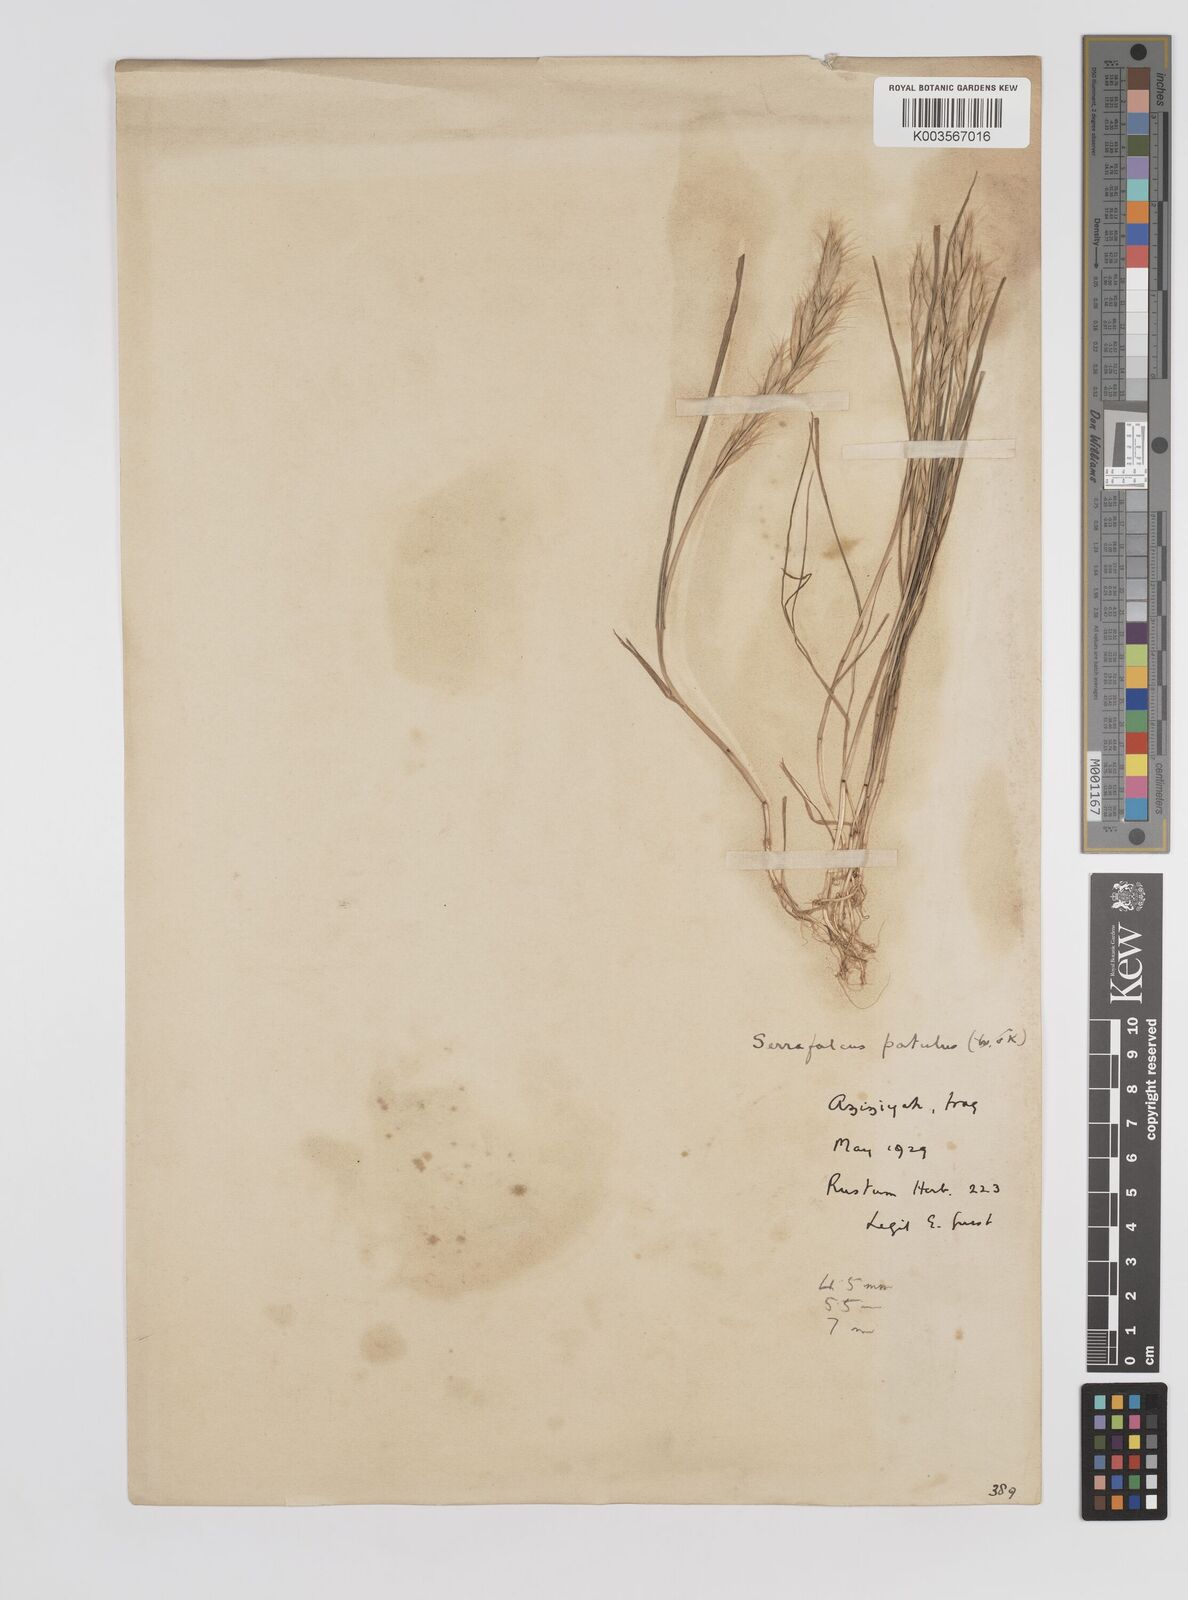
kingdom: Plantae
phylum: Tracheophyta
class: Liliopsida
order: Poales
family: Poaceae
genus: Bromus
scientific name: Bromus danthoniae
